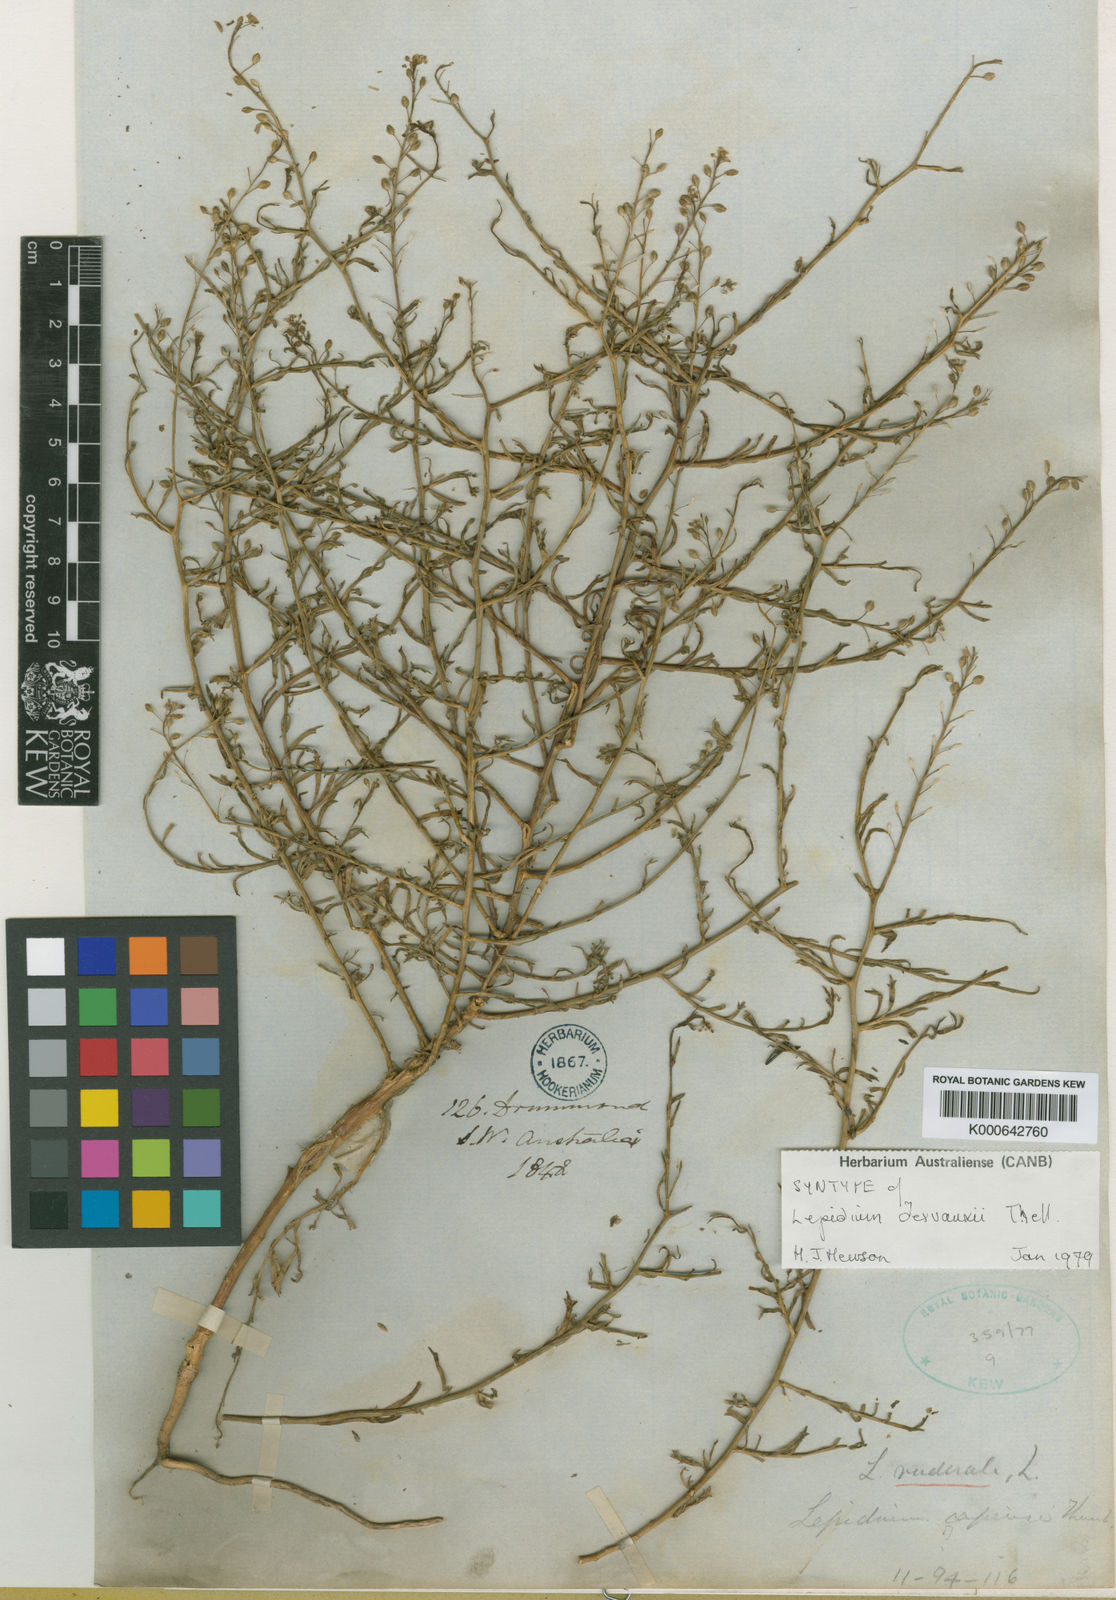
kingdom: Plantae
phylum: Tracheophyta
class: Magnoliopsida
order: Brassicales
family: Brassicaceae
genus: Lepidium
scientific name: Lepidium pseudotasmanicum
